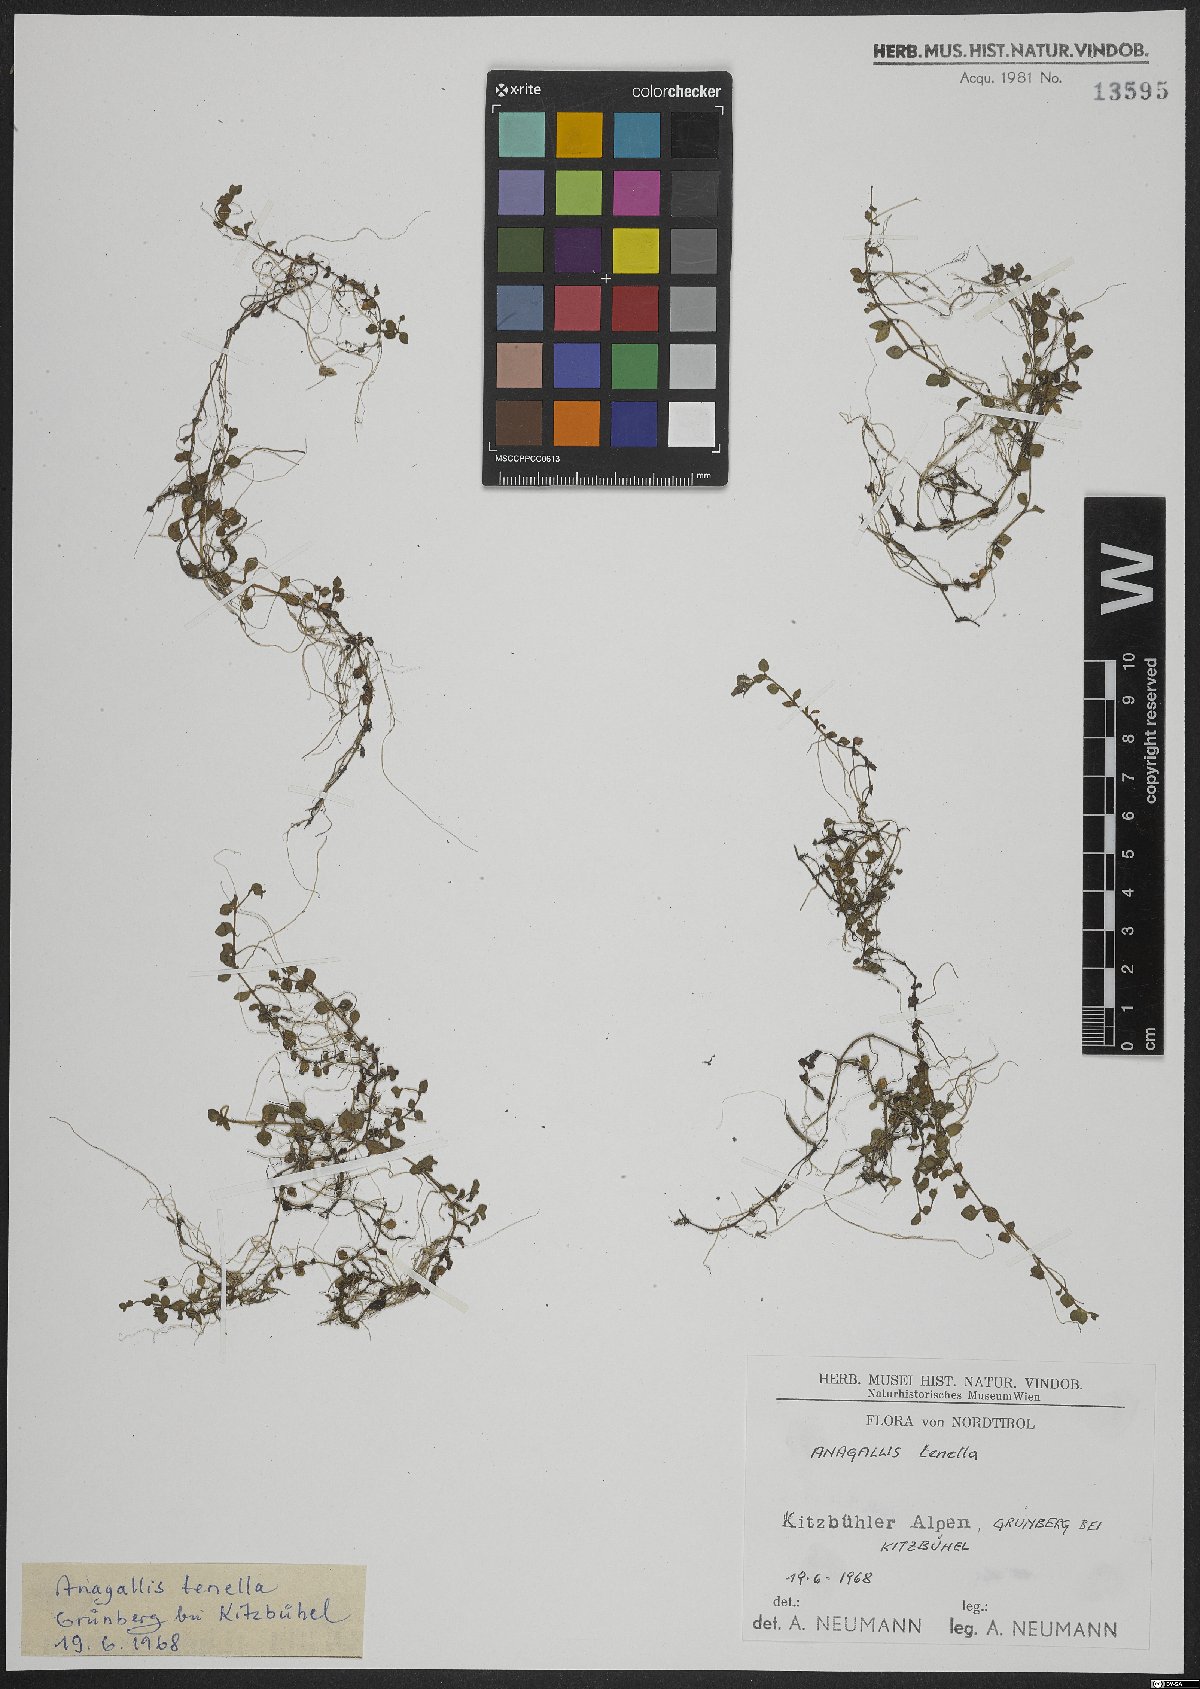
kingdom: Plantae
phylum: Tracheophyta
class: Magnoliopsida
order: Ericales
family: Primulaceae
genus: Lysimachia
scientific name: Lysimachia tenella
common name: European bog pimpernel
